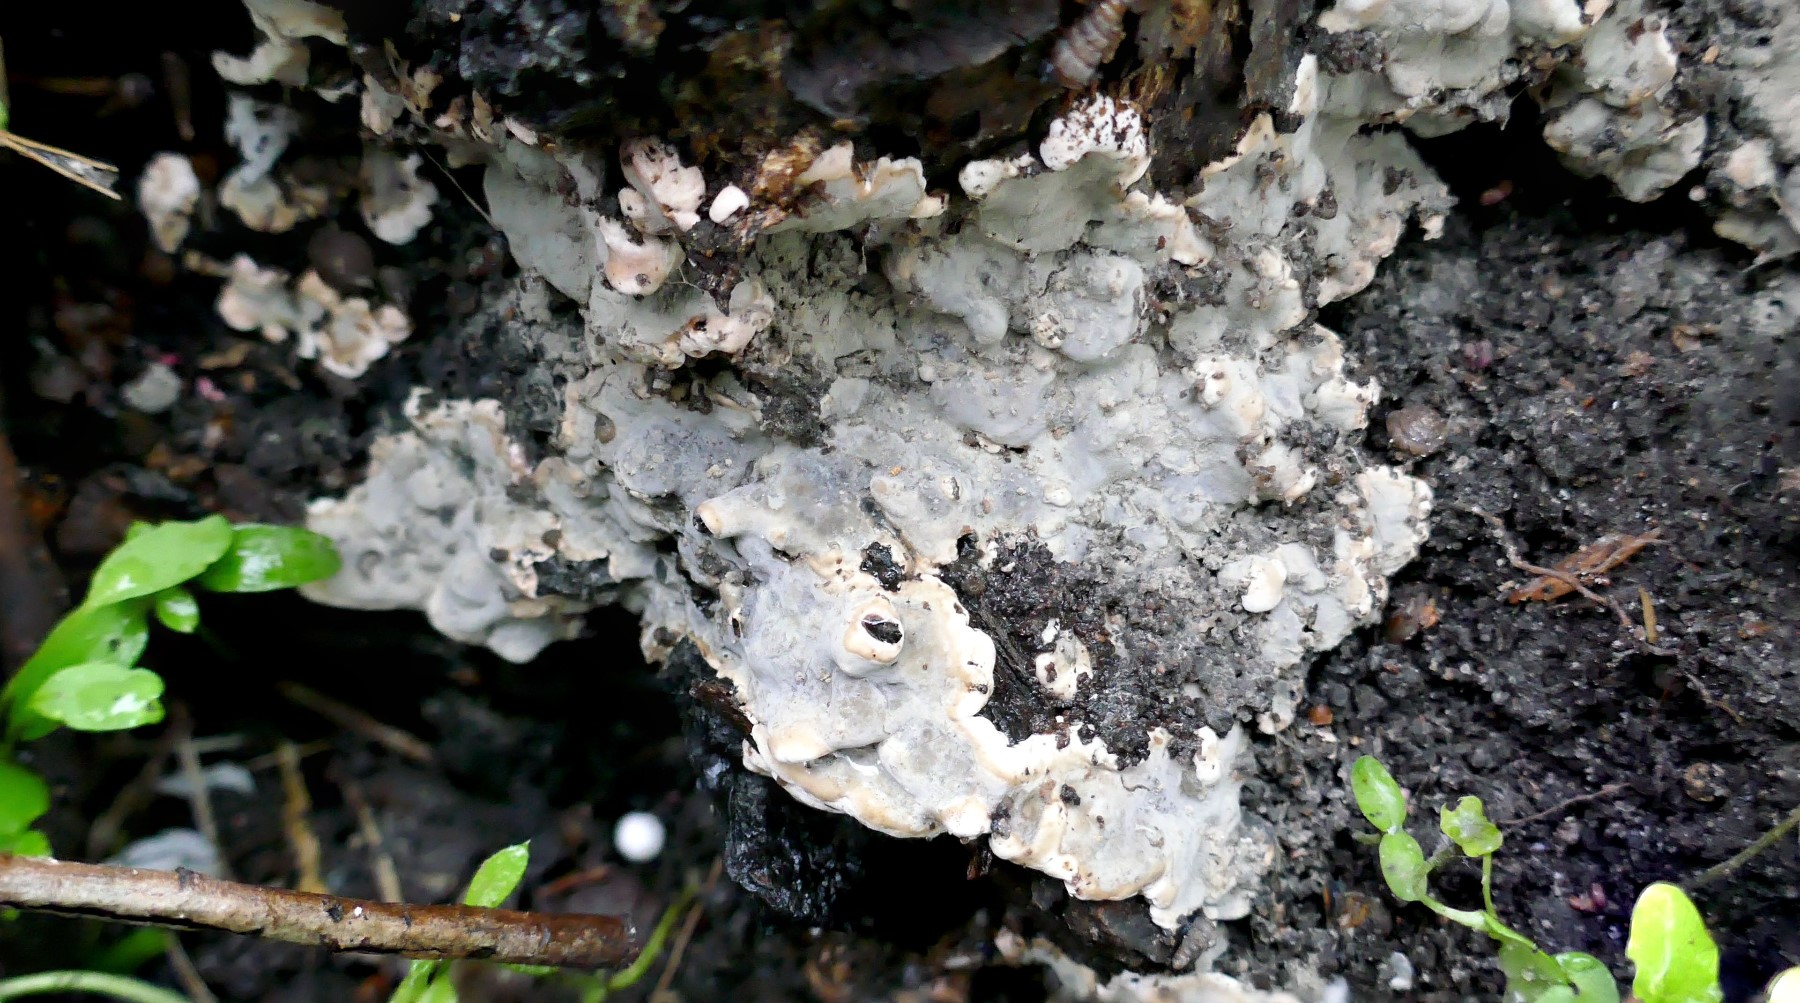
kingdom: Fungi
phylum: Ascomycota
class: Sordariomycetes
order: Xylariales
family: Xylariaceae
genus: Kretzschmaria
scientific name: Kretzschmaria deusta
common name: stor kulsvamp
